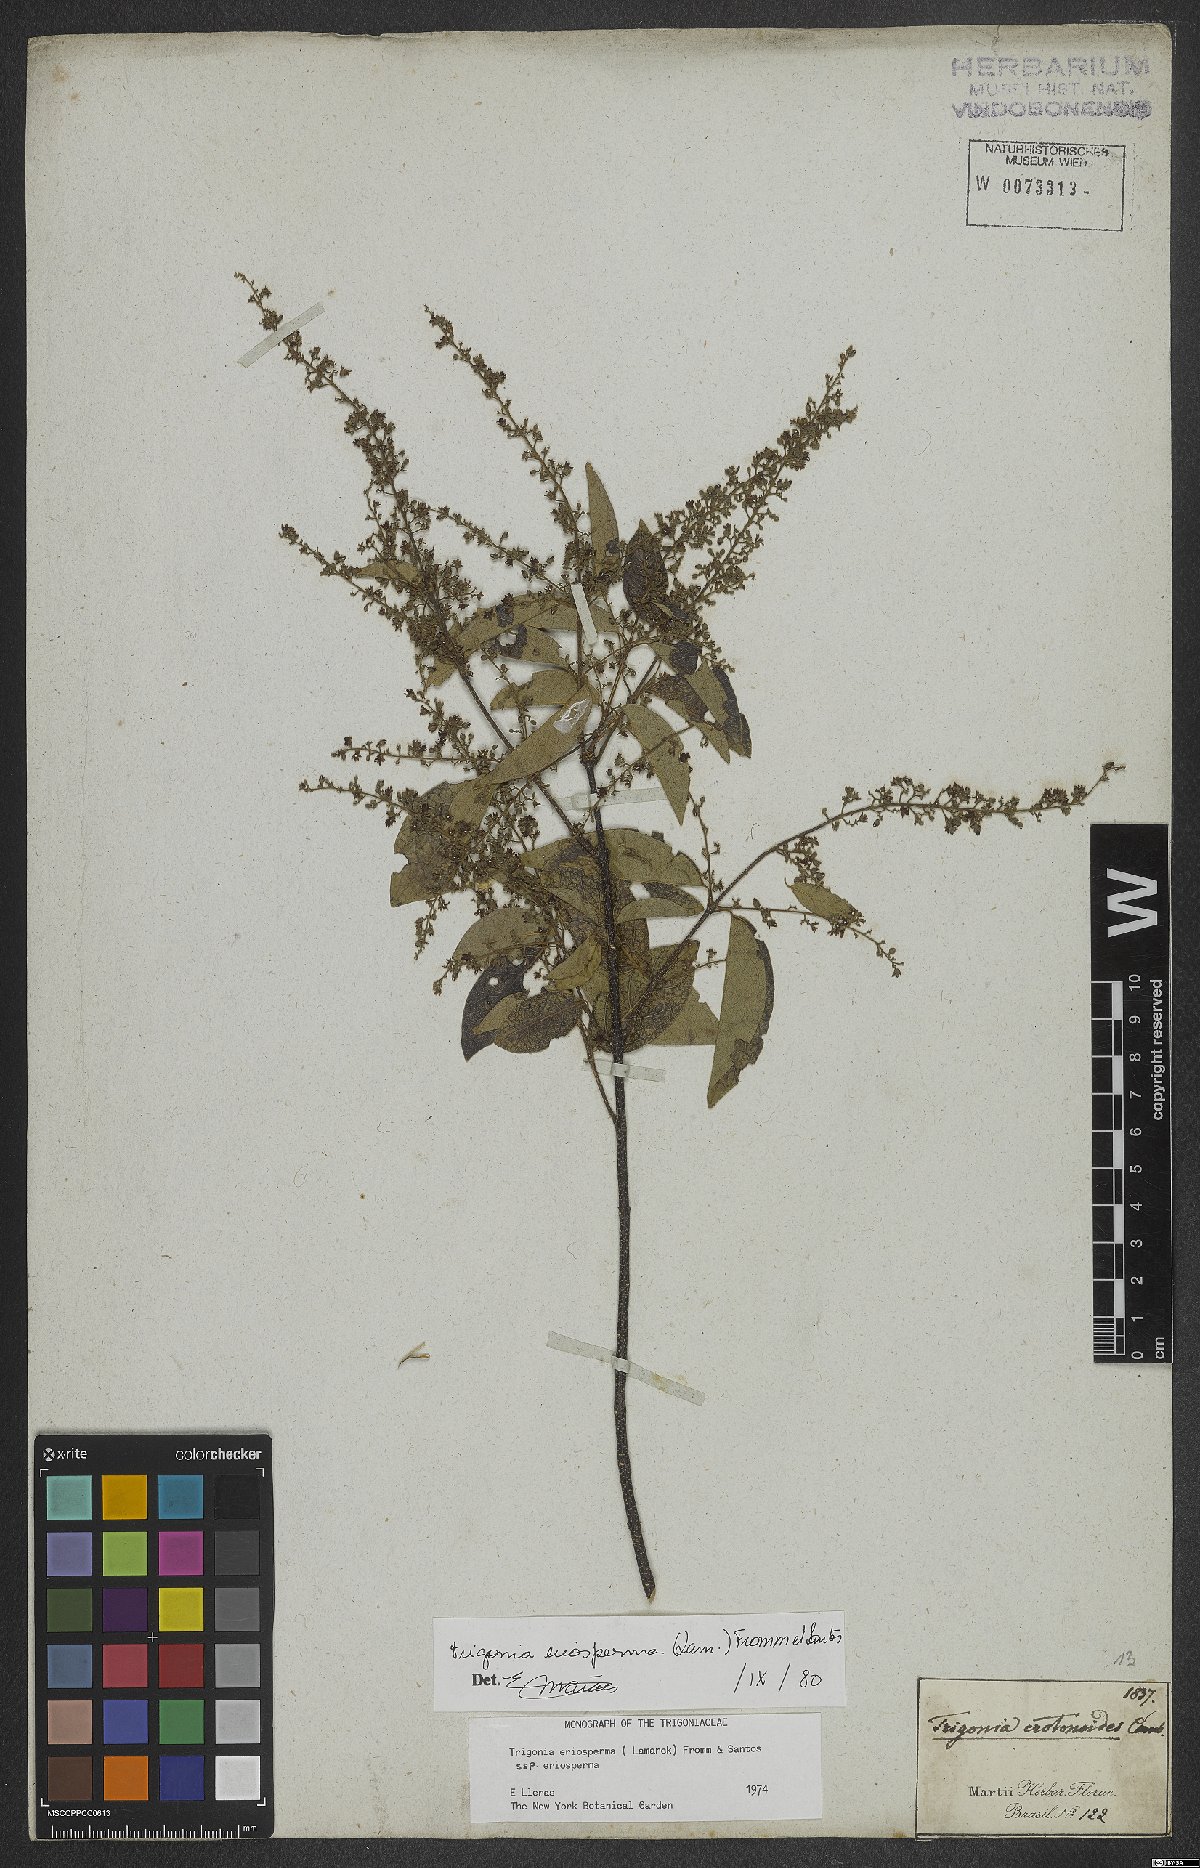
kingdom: Plantae
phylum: Tracheophyta
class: Magnoliopsida
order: Malpighiales
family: Trigoniaceae
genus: Trigonia
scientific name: Trigonia eriosperma
